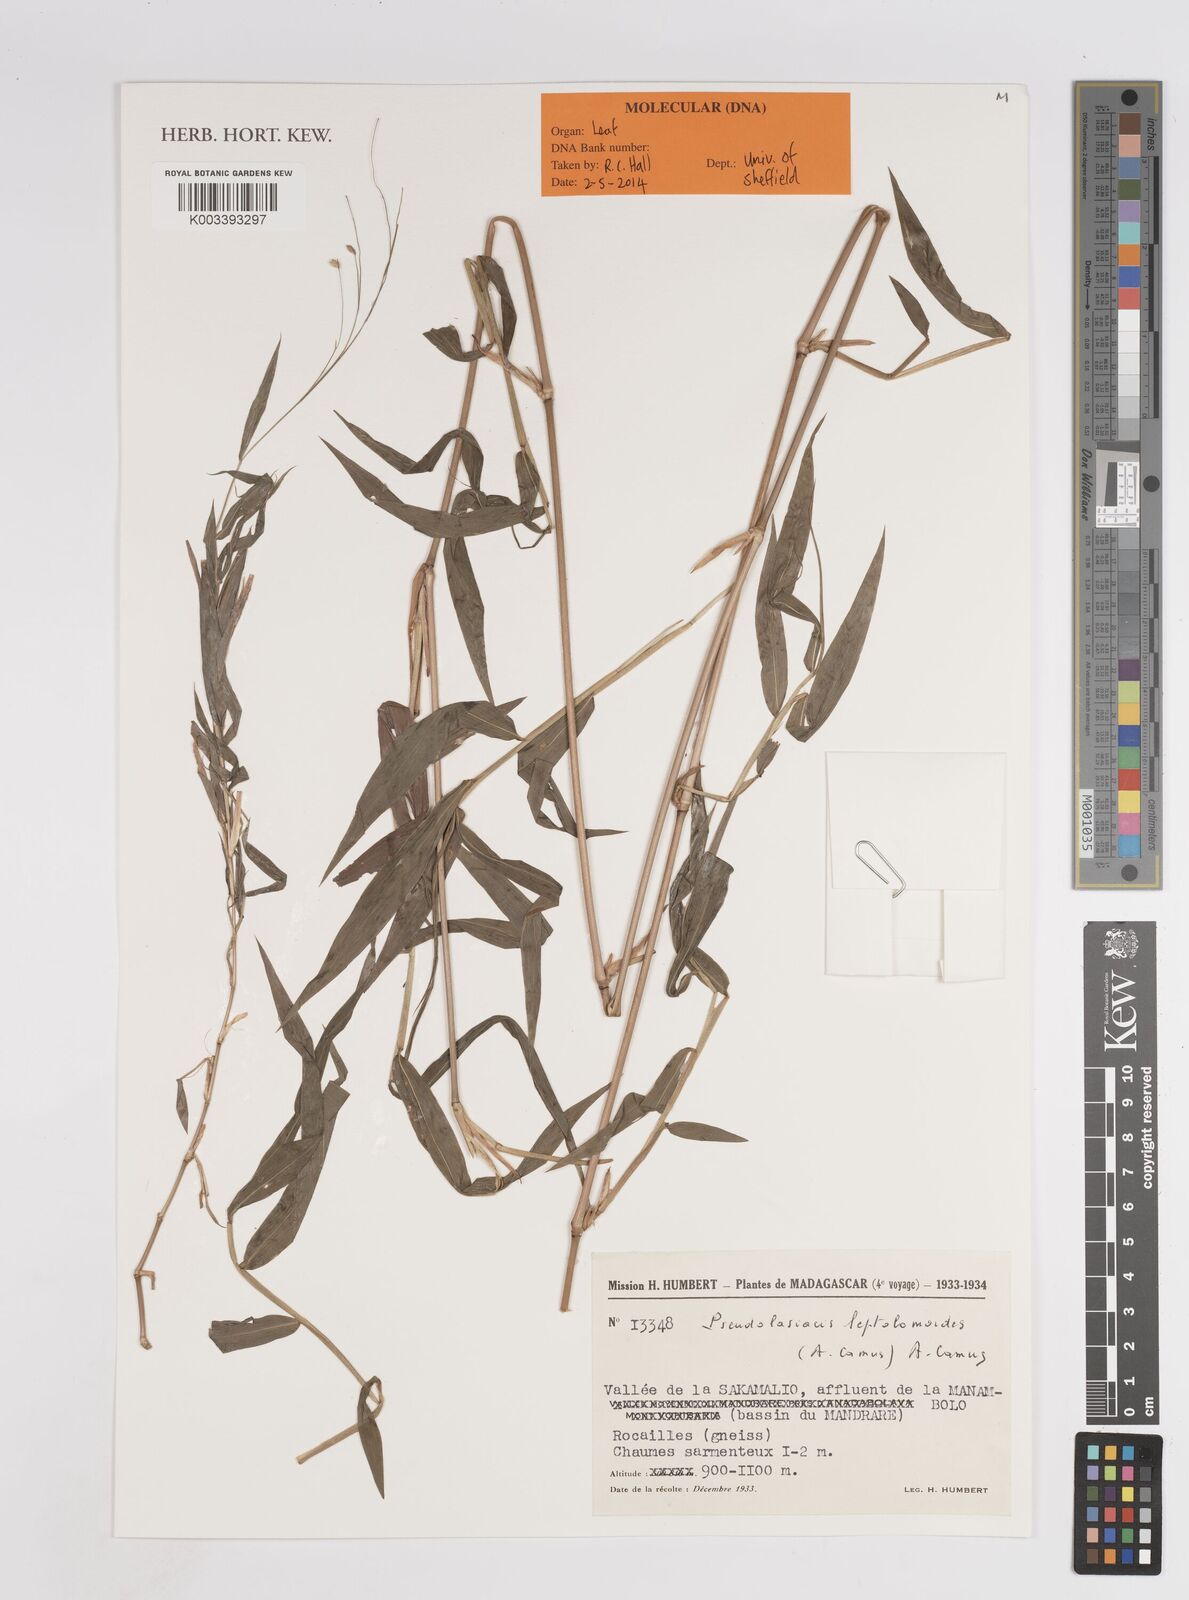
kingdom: Plantae
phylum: Tracheophyta
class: Liliopsida
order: Poales
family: Poaceae
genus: Pseudolasiacis
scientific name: Pseudolasiacis leptolomoides
